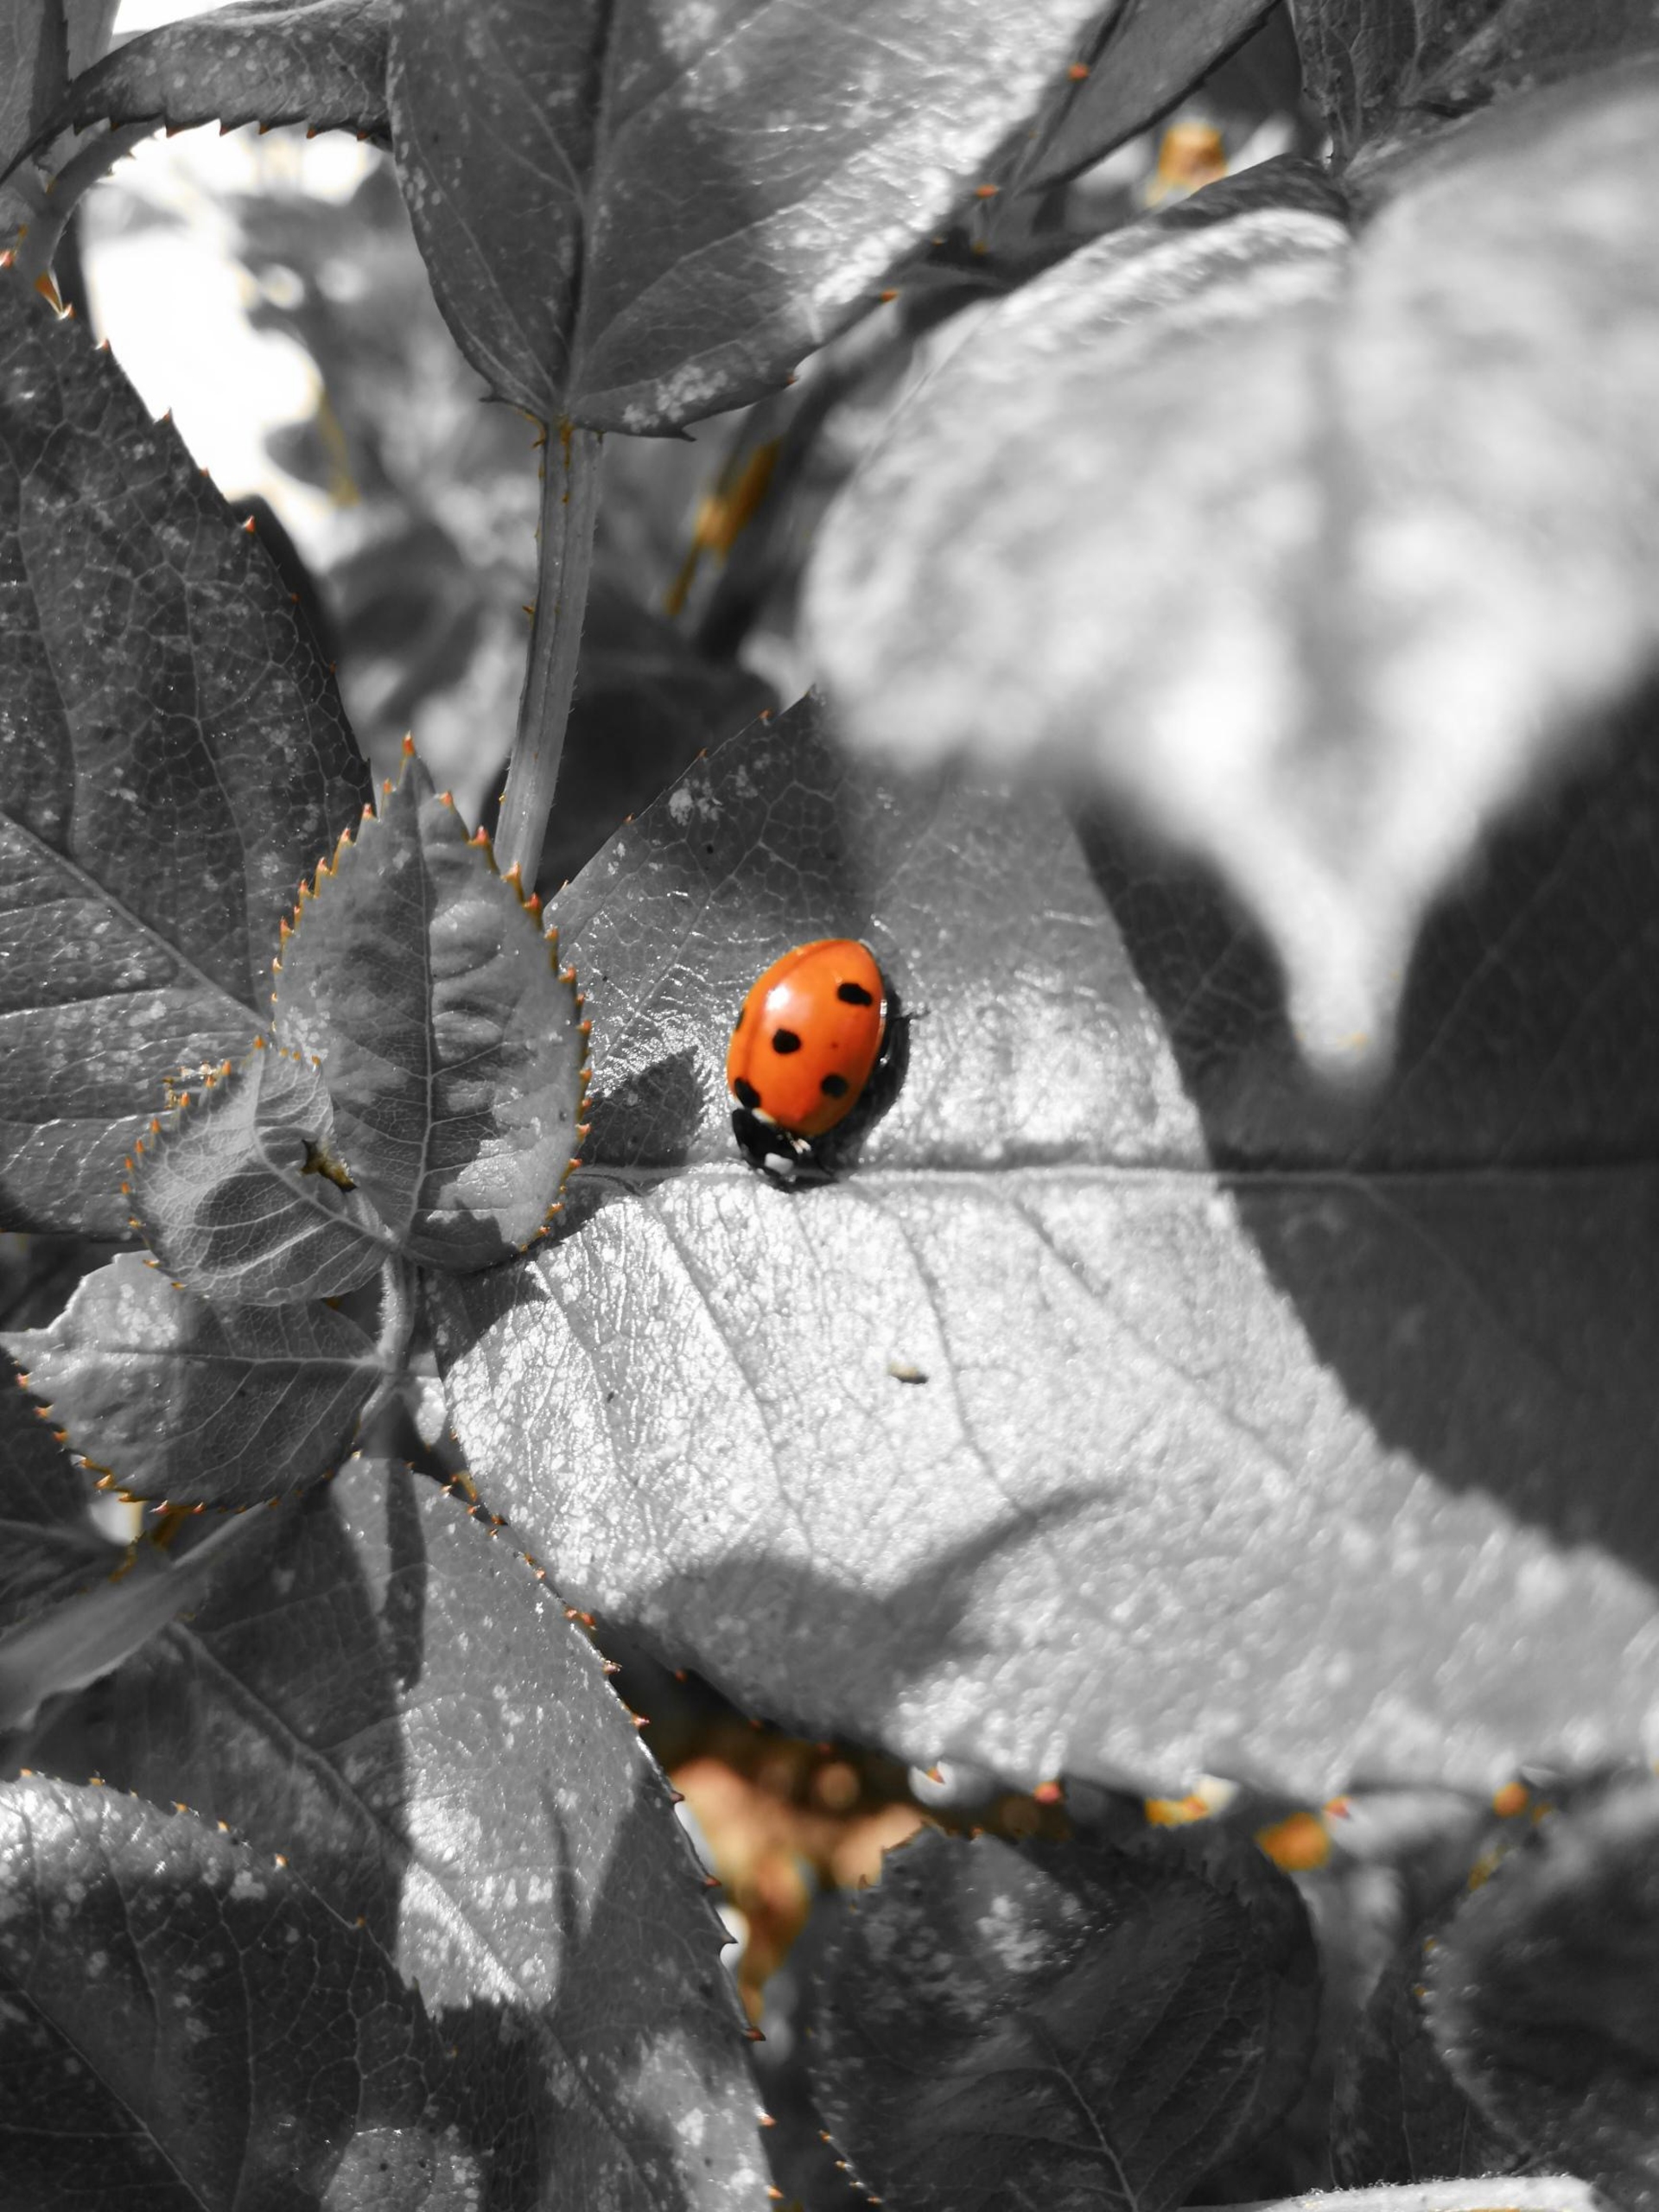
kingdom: Animalia
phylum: Arthropoda
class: Insecta
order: Coleoptera
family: Coccinellidae
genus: Coccinella
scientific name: Coccinella septempunctata
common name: Syvplettet mariehøne
